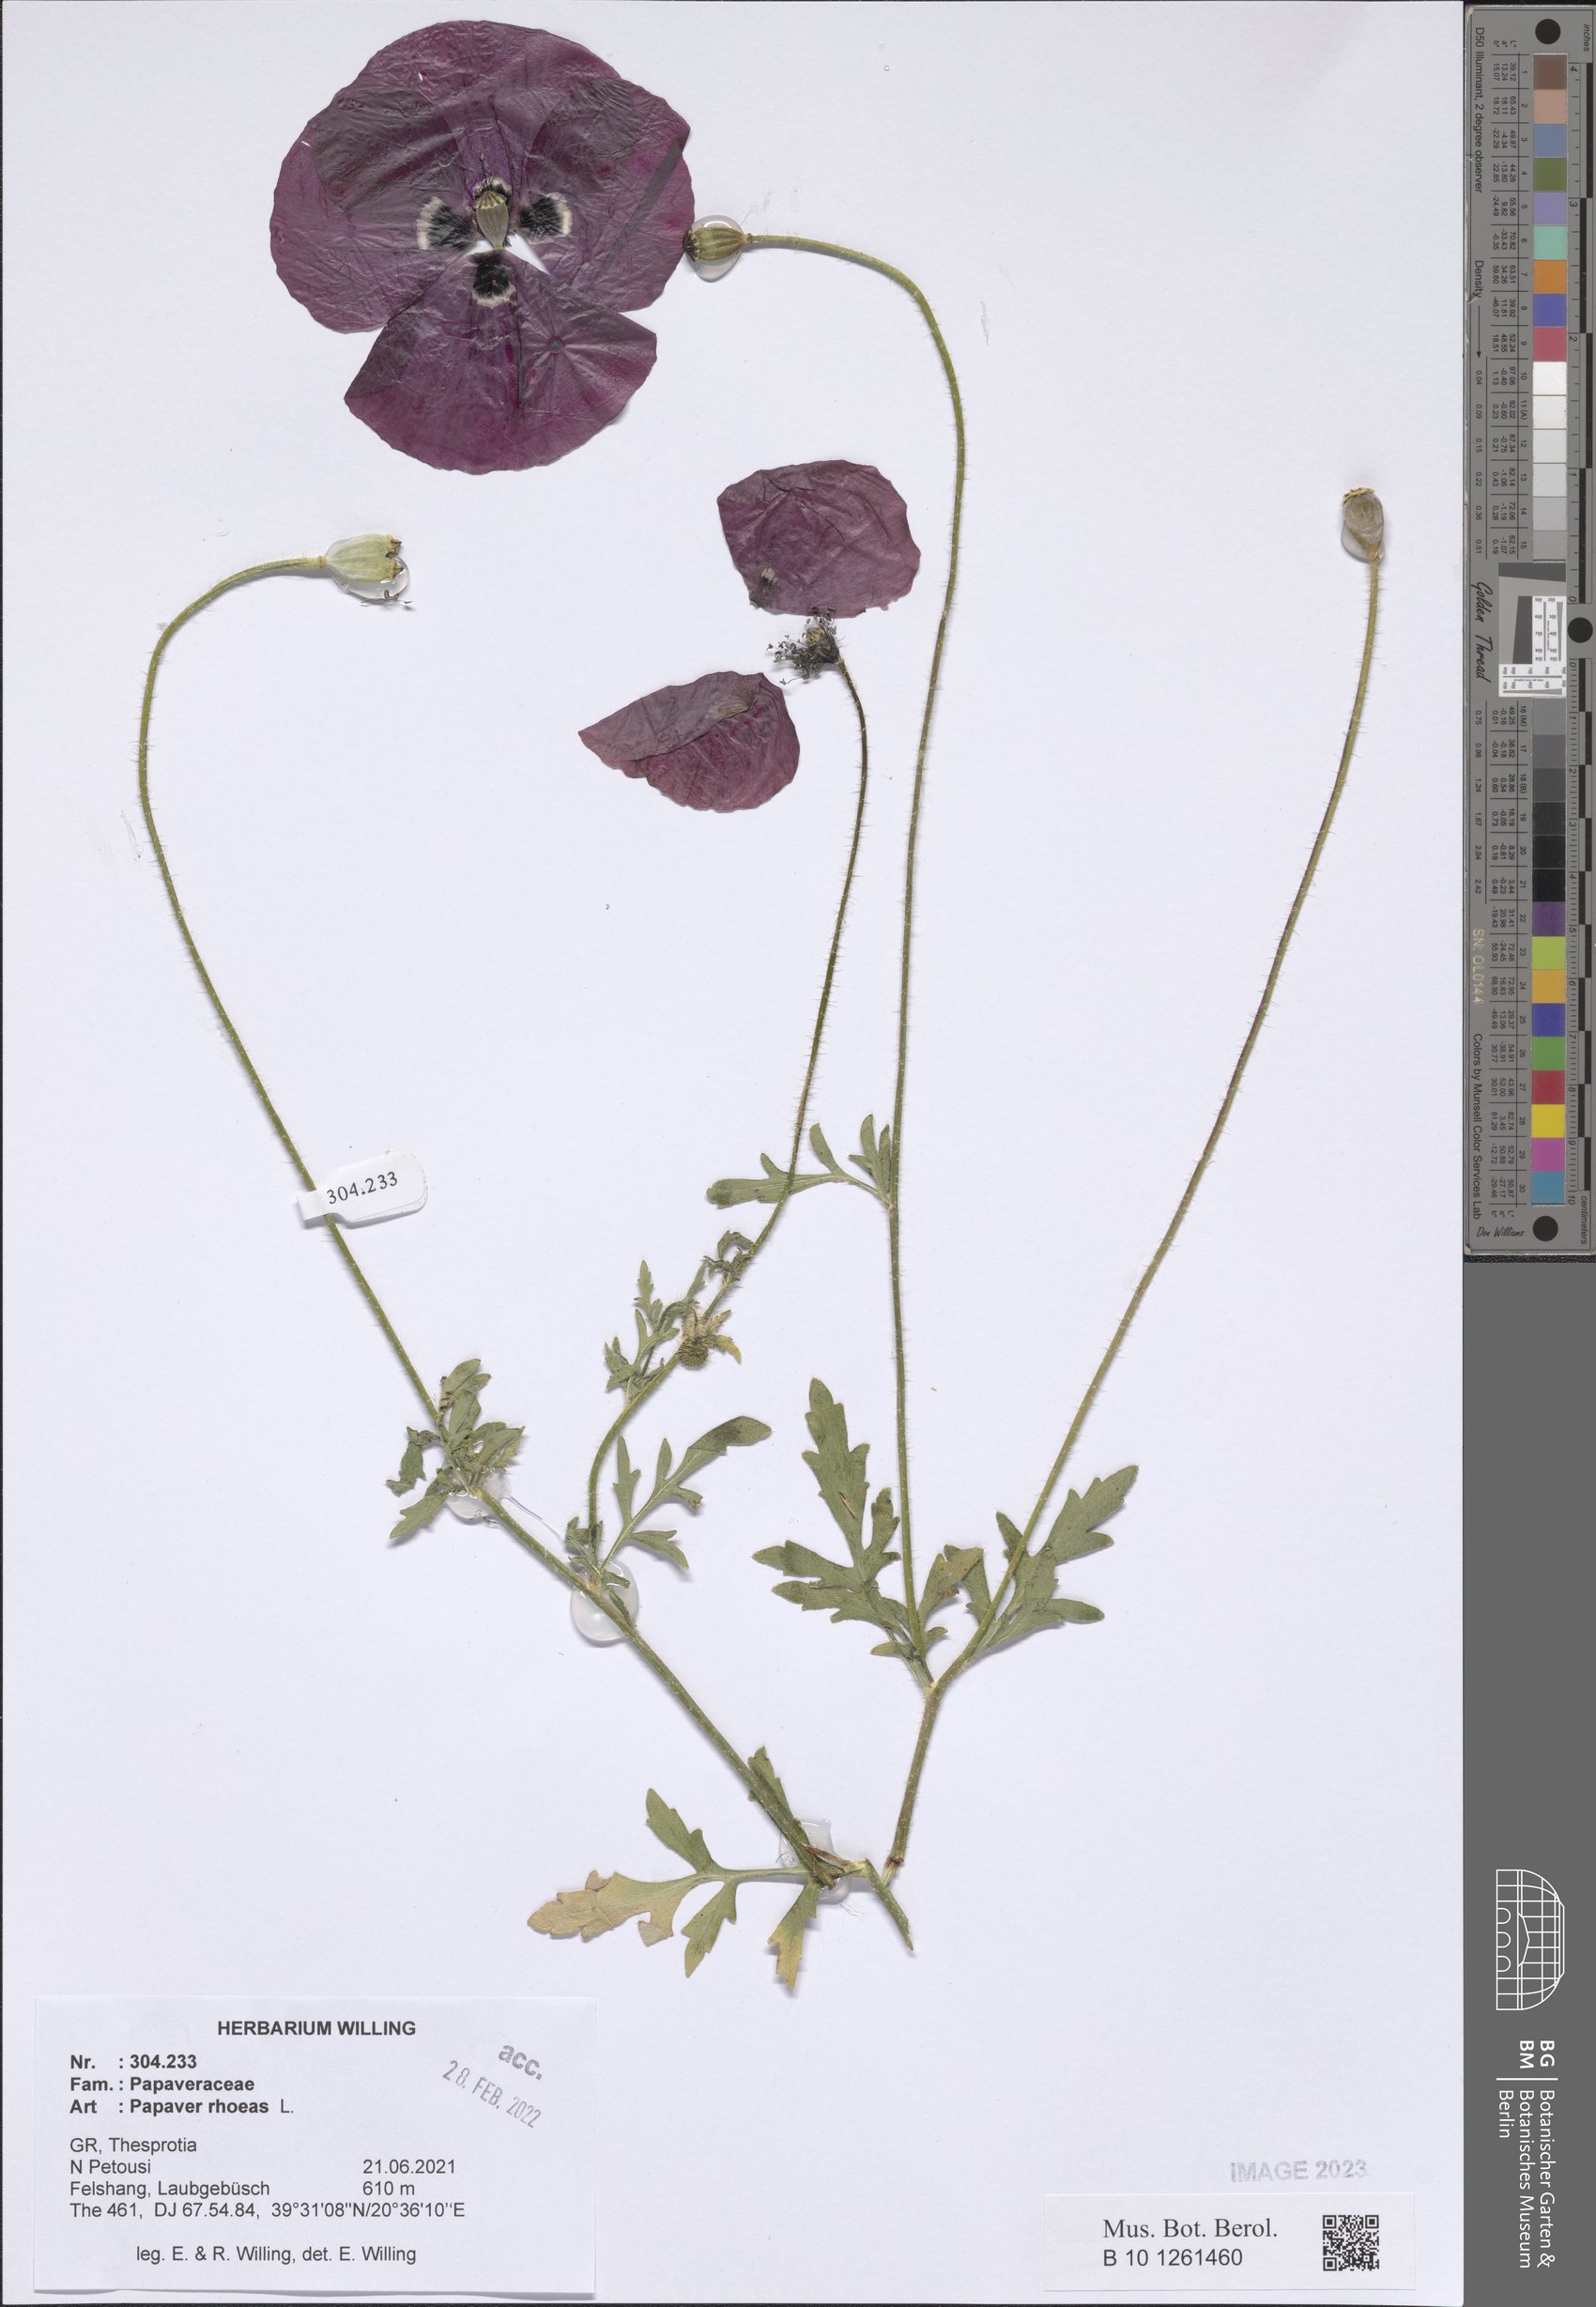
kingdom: Plantae
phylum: Tracheophyta
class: Magnoliopsida
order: Ranunculales
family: Papaveraceae
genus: Papaver
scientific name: Papaver rhoeas
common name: Corn poppy
